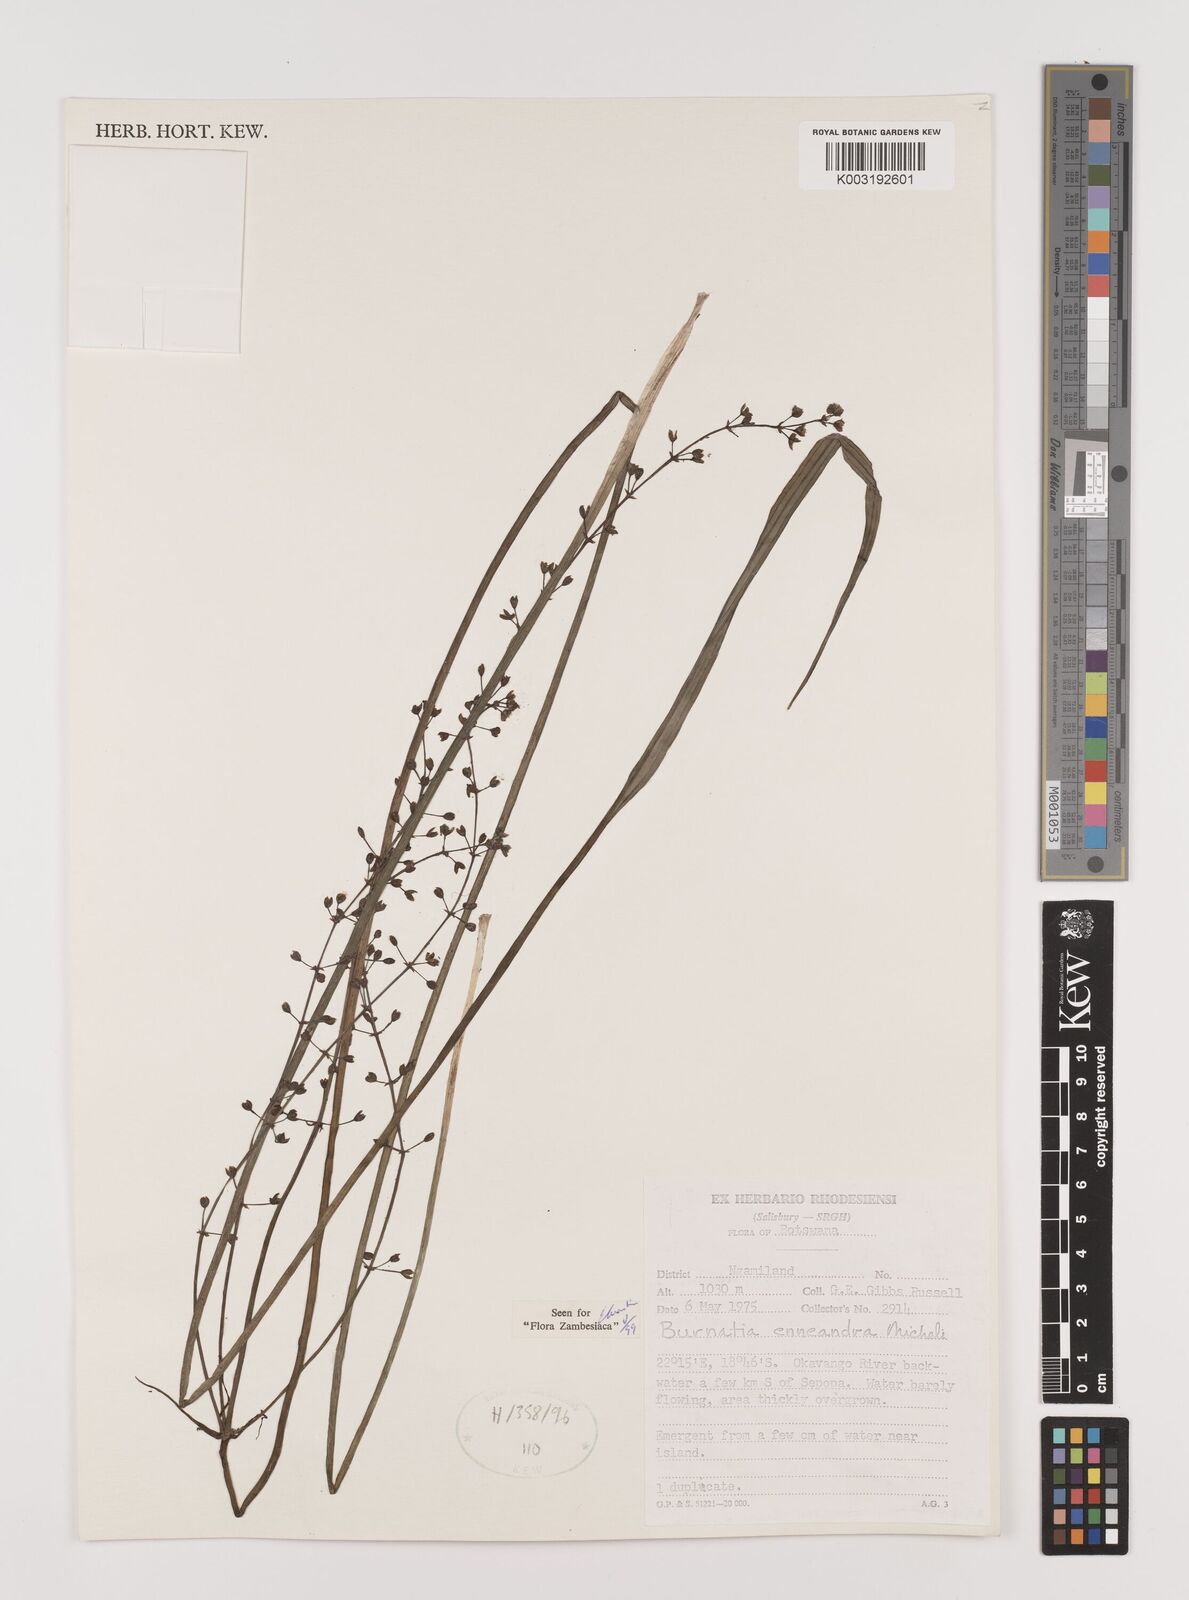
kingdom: Plantae
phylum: Tracheophyta
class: Liliopsida
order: Alismatales
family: Alismataceae
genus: Burnatia
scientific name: Burnatia enneandra
